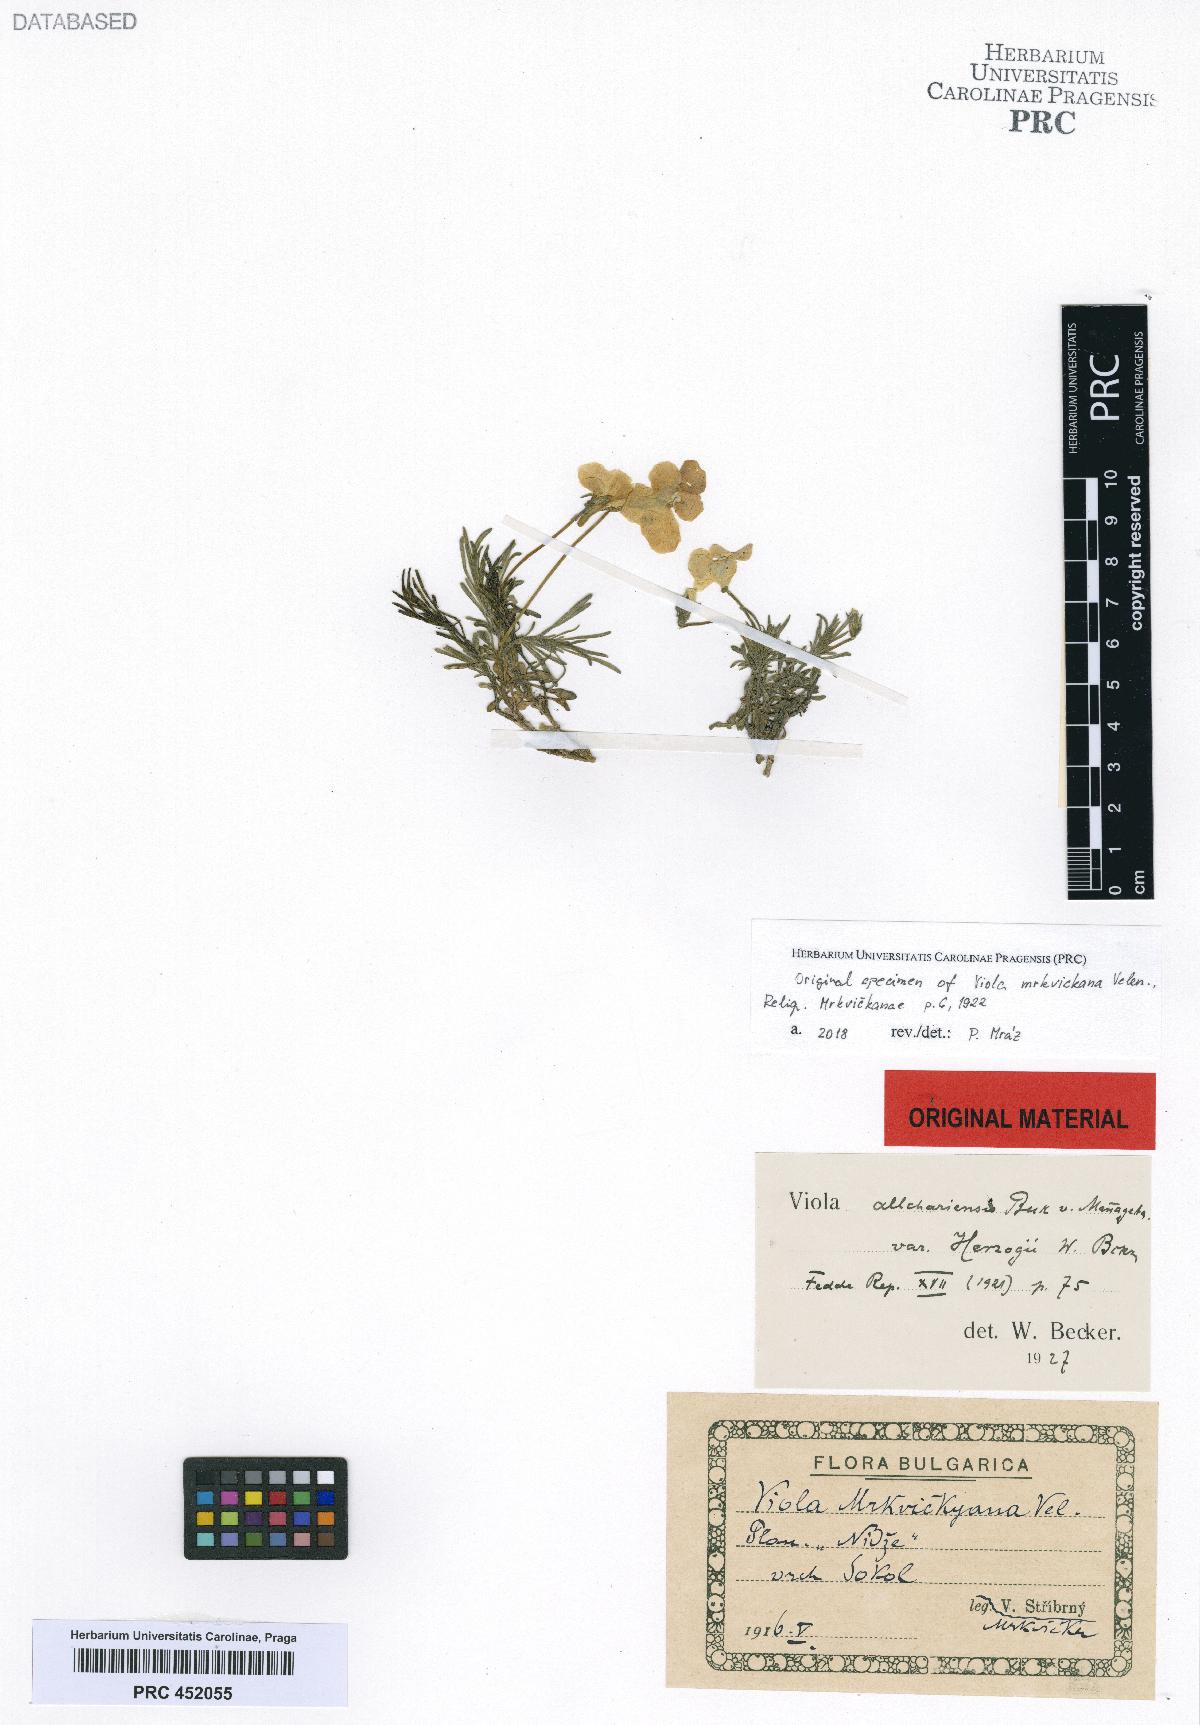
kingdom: Plantae
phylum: Tracheophyta
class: Magnoliopsida
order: Malpighiales
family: Violaceae
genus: Viola
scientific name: Viola herzogii
